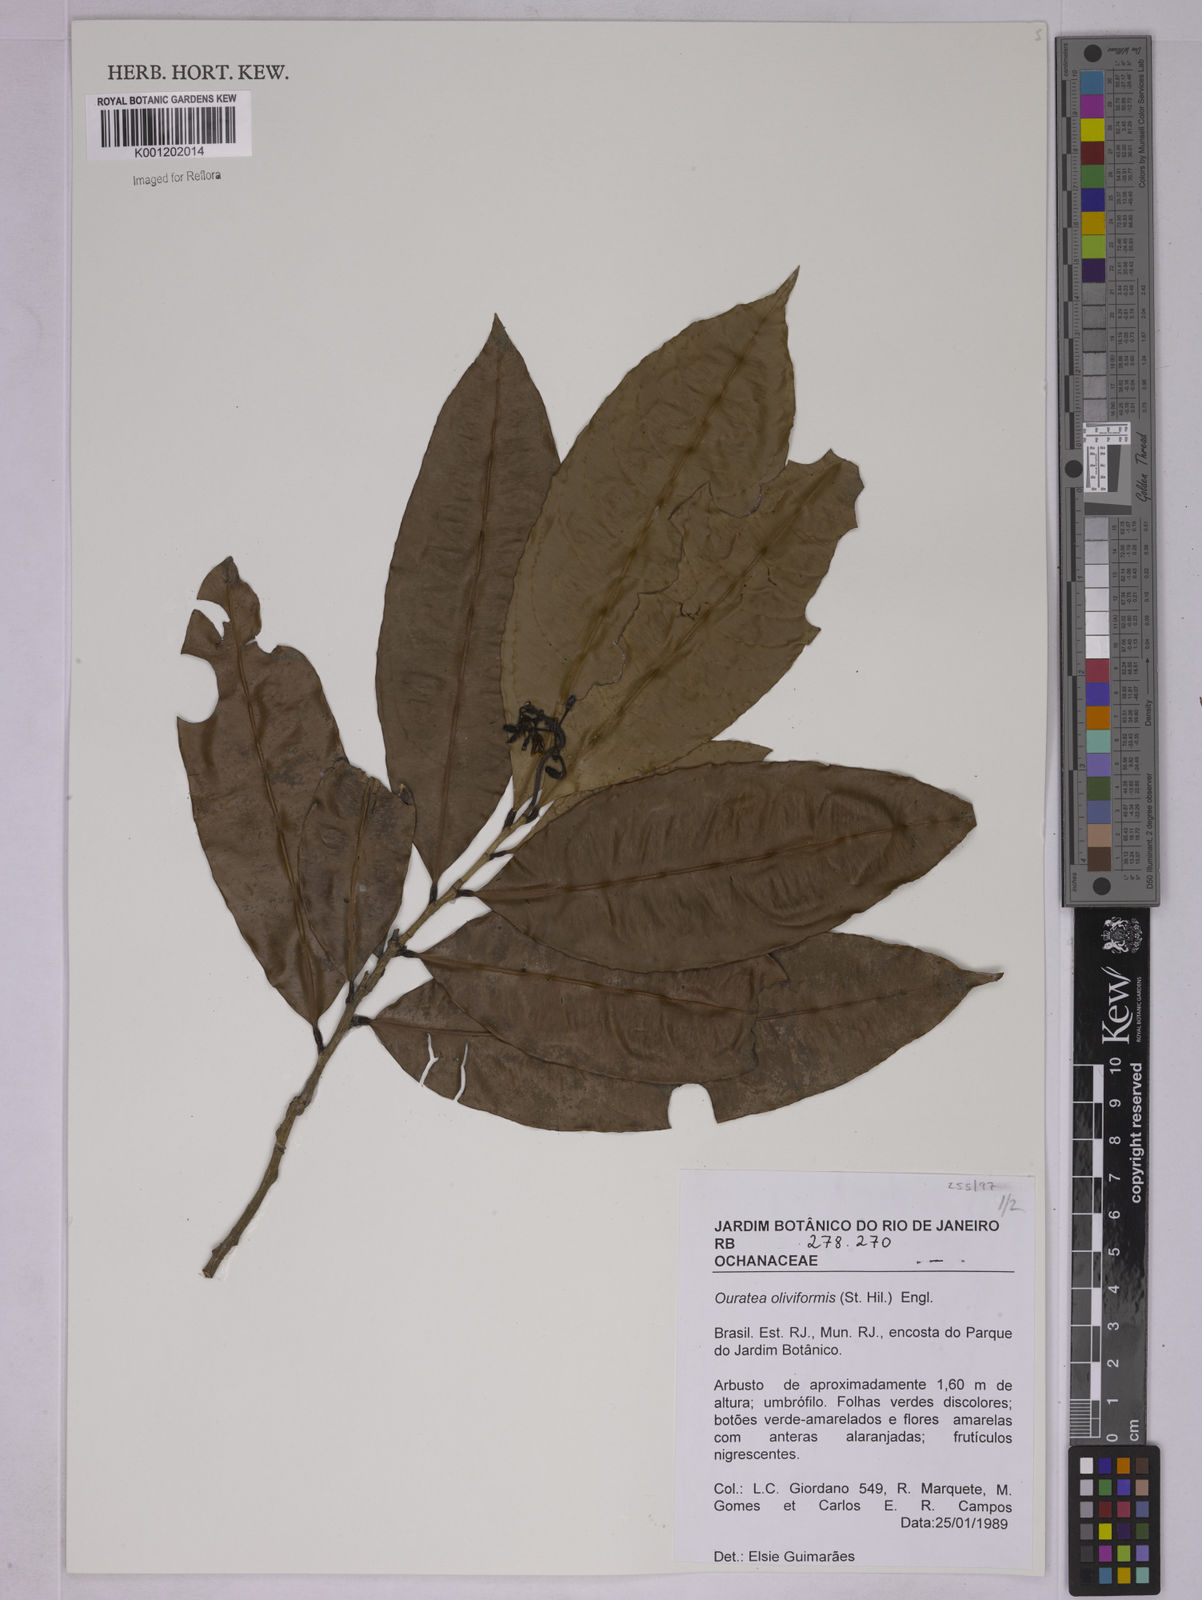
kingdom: Plantae
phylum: Tracheophyta
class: Magnoliopsida
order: Malpighiales
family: Ochnaceae
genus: Ouratea
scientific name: Ouratea oliviformis
